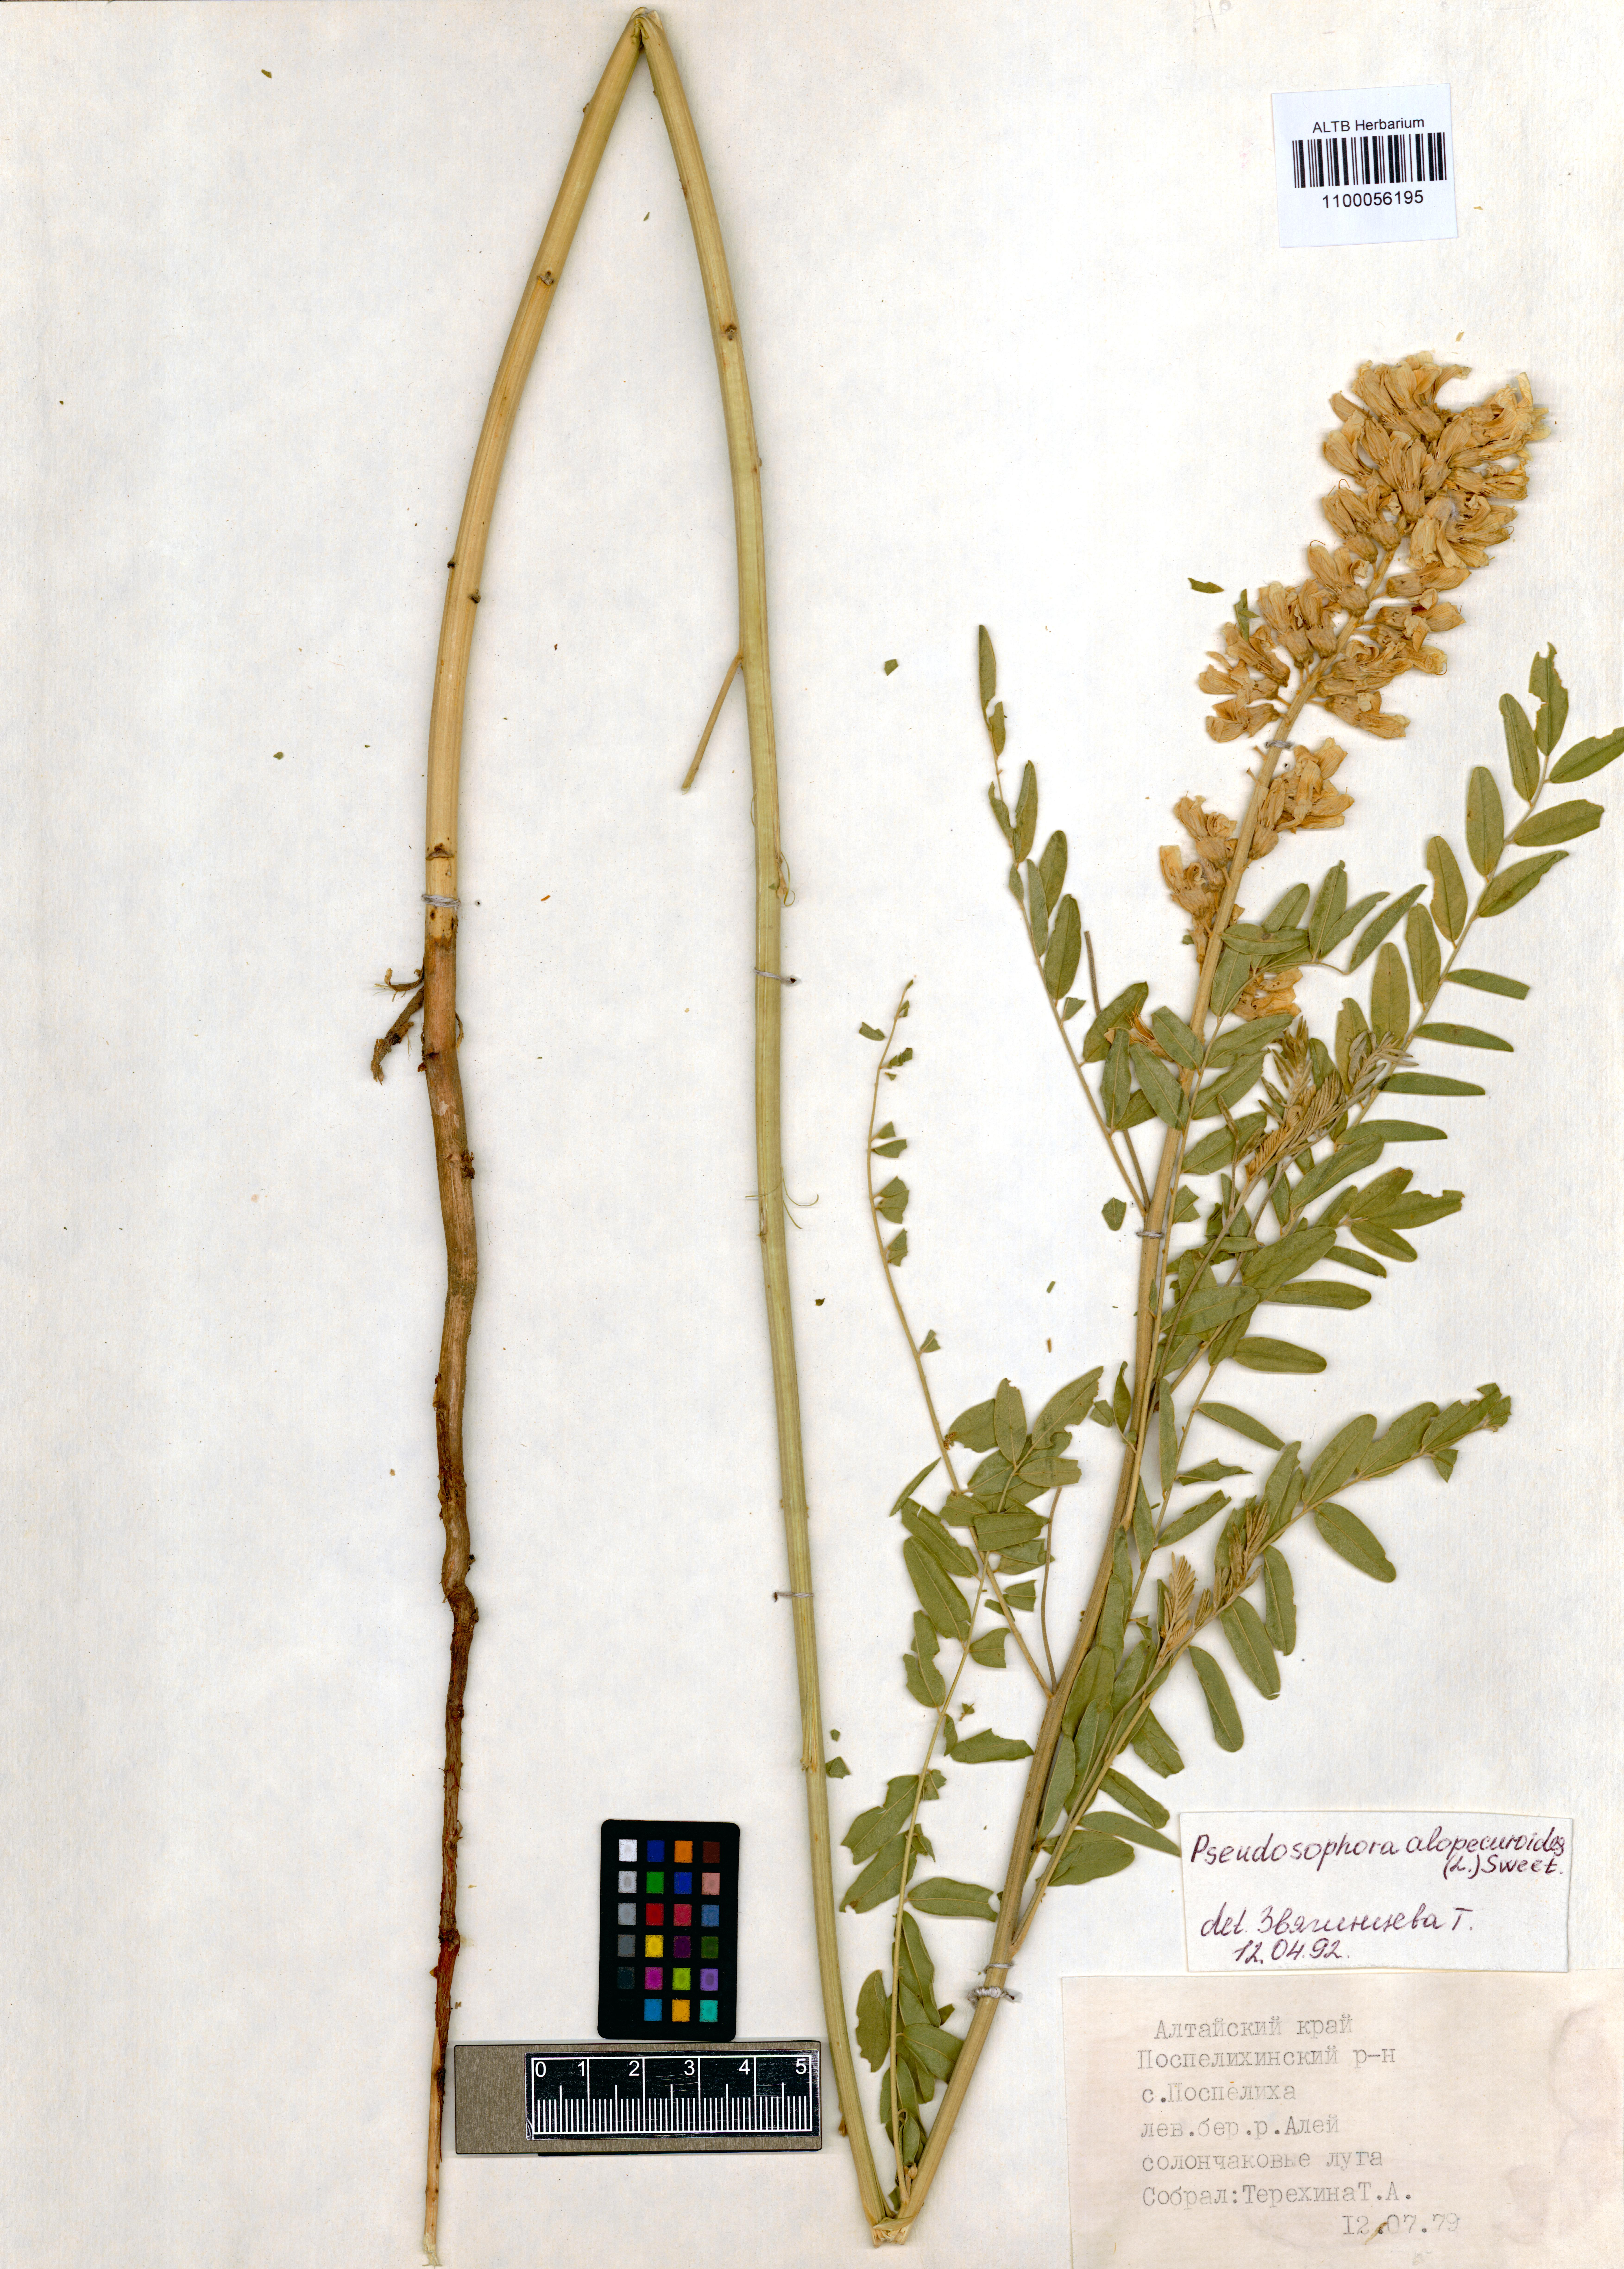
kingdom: Plantae
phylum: Tracheophyta
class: Magnoliopsida
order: Fabales
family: Fabaceae
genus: Sophora
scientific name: Sophora alopecuroides
